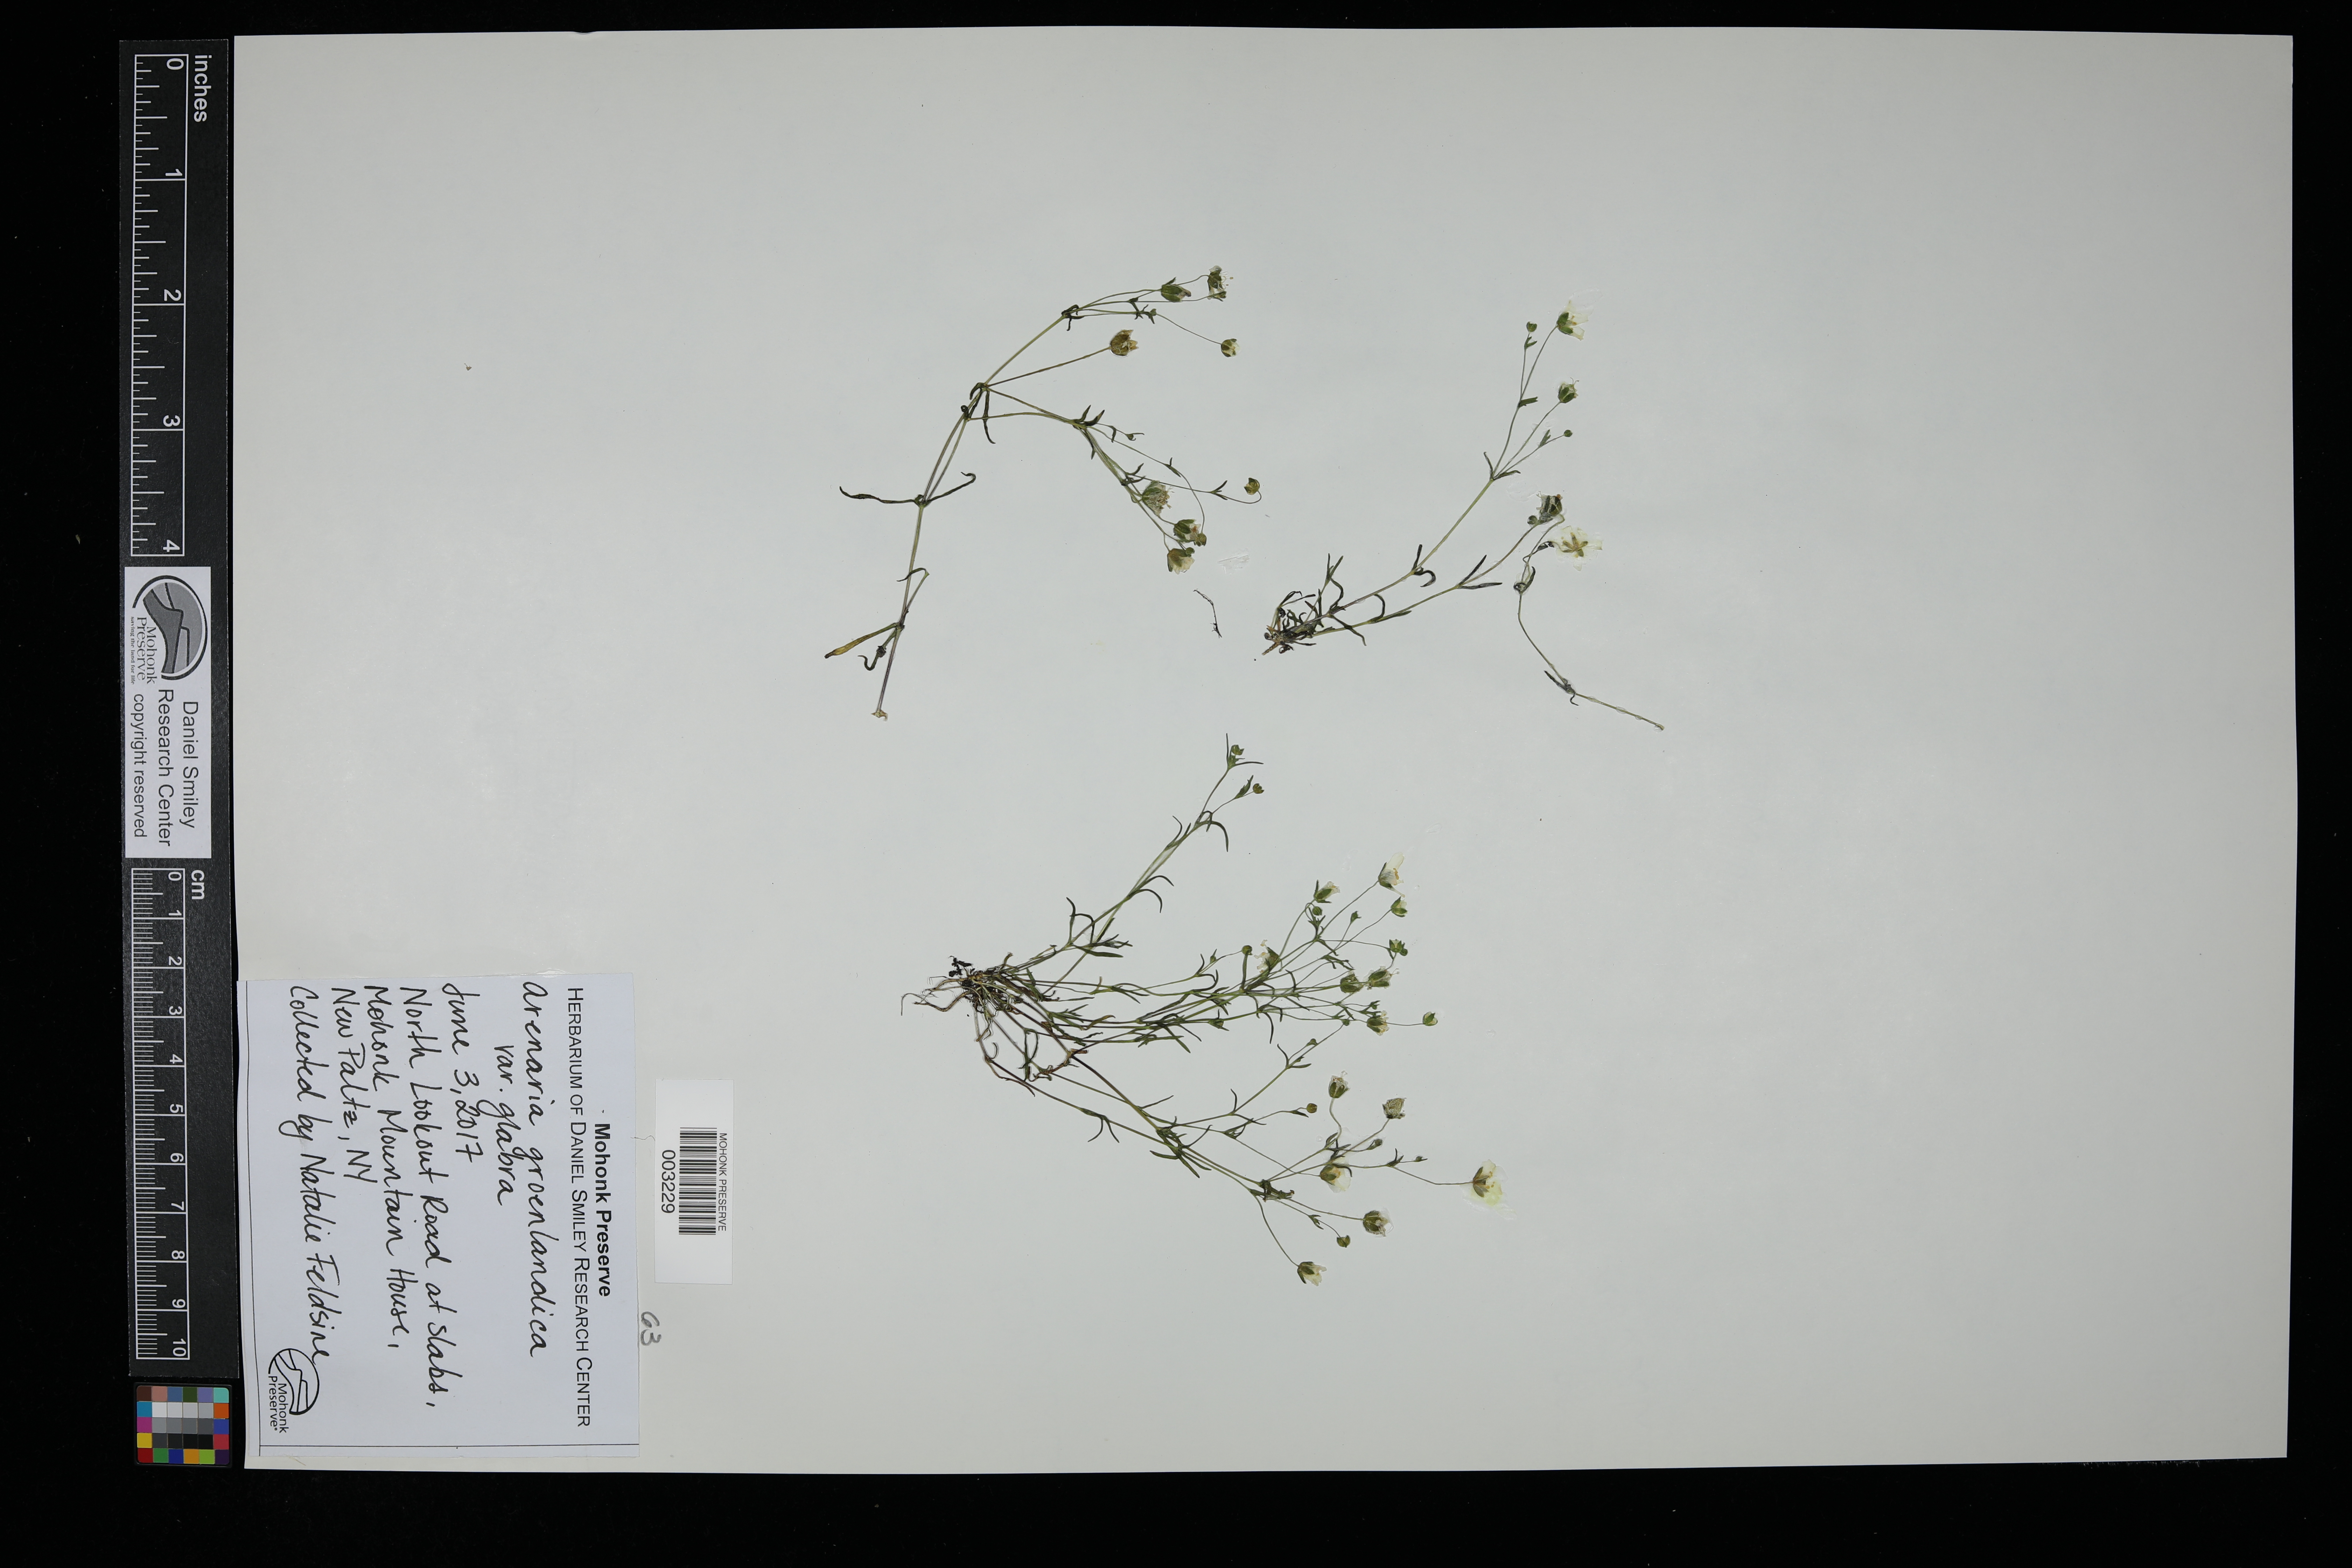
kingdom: Plantae
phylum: Tracheophyta
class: Magnoliopsida
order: Caryophyllales
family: Caryophyllaceae
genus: Geocarpon
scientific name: Geocarpon glabrum
